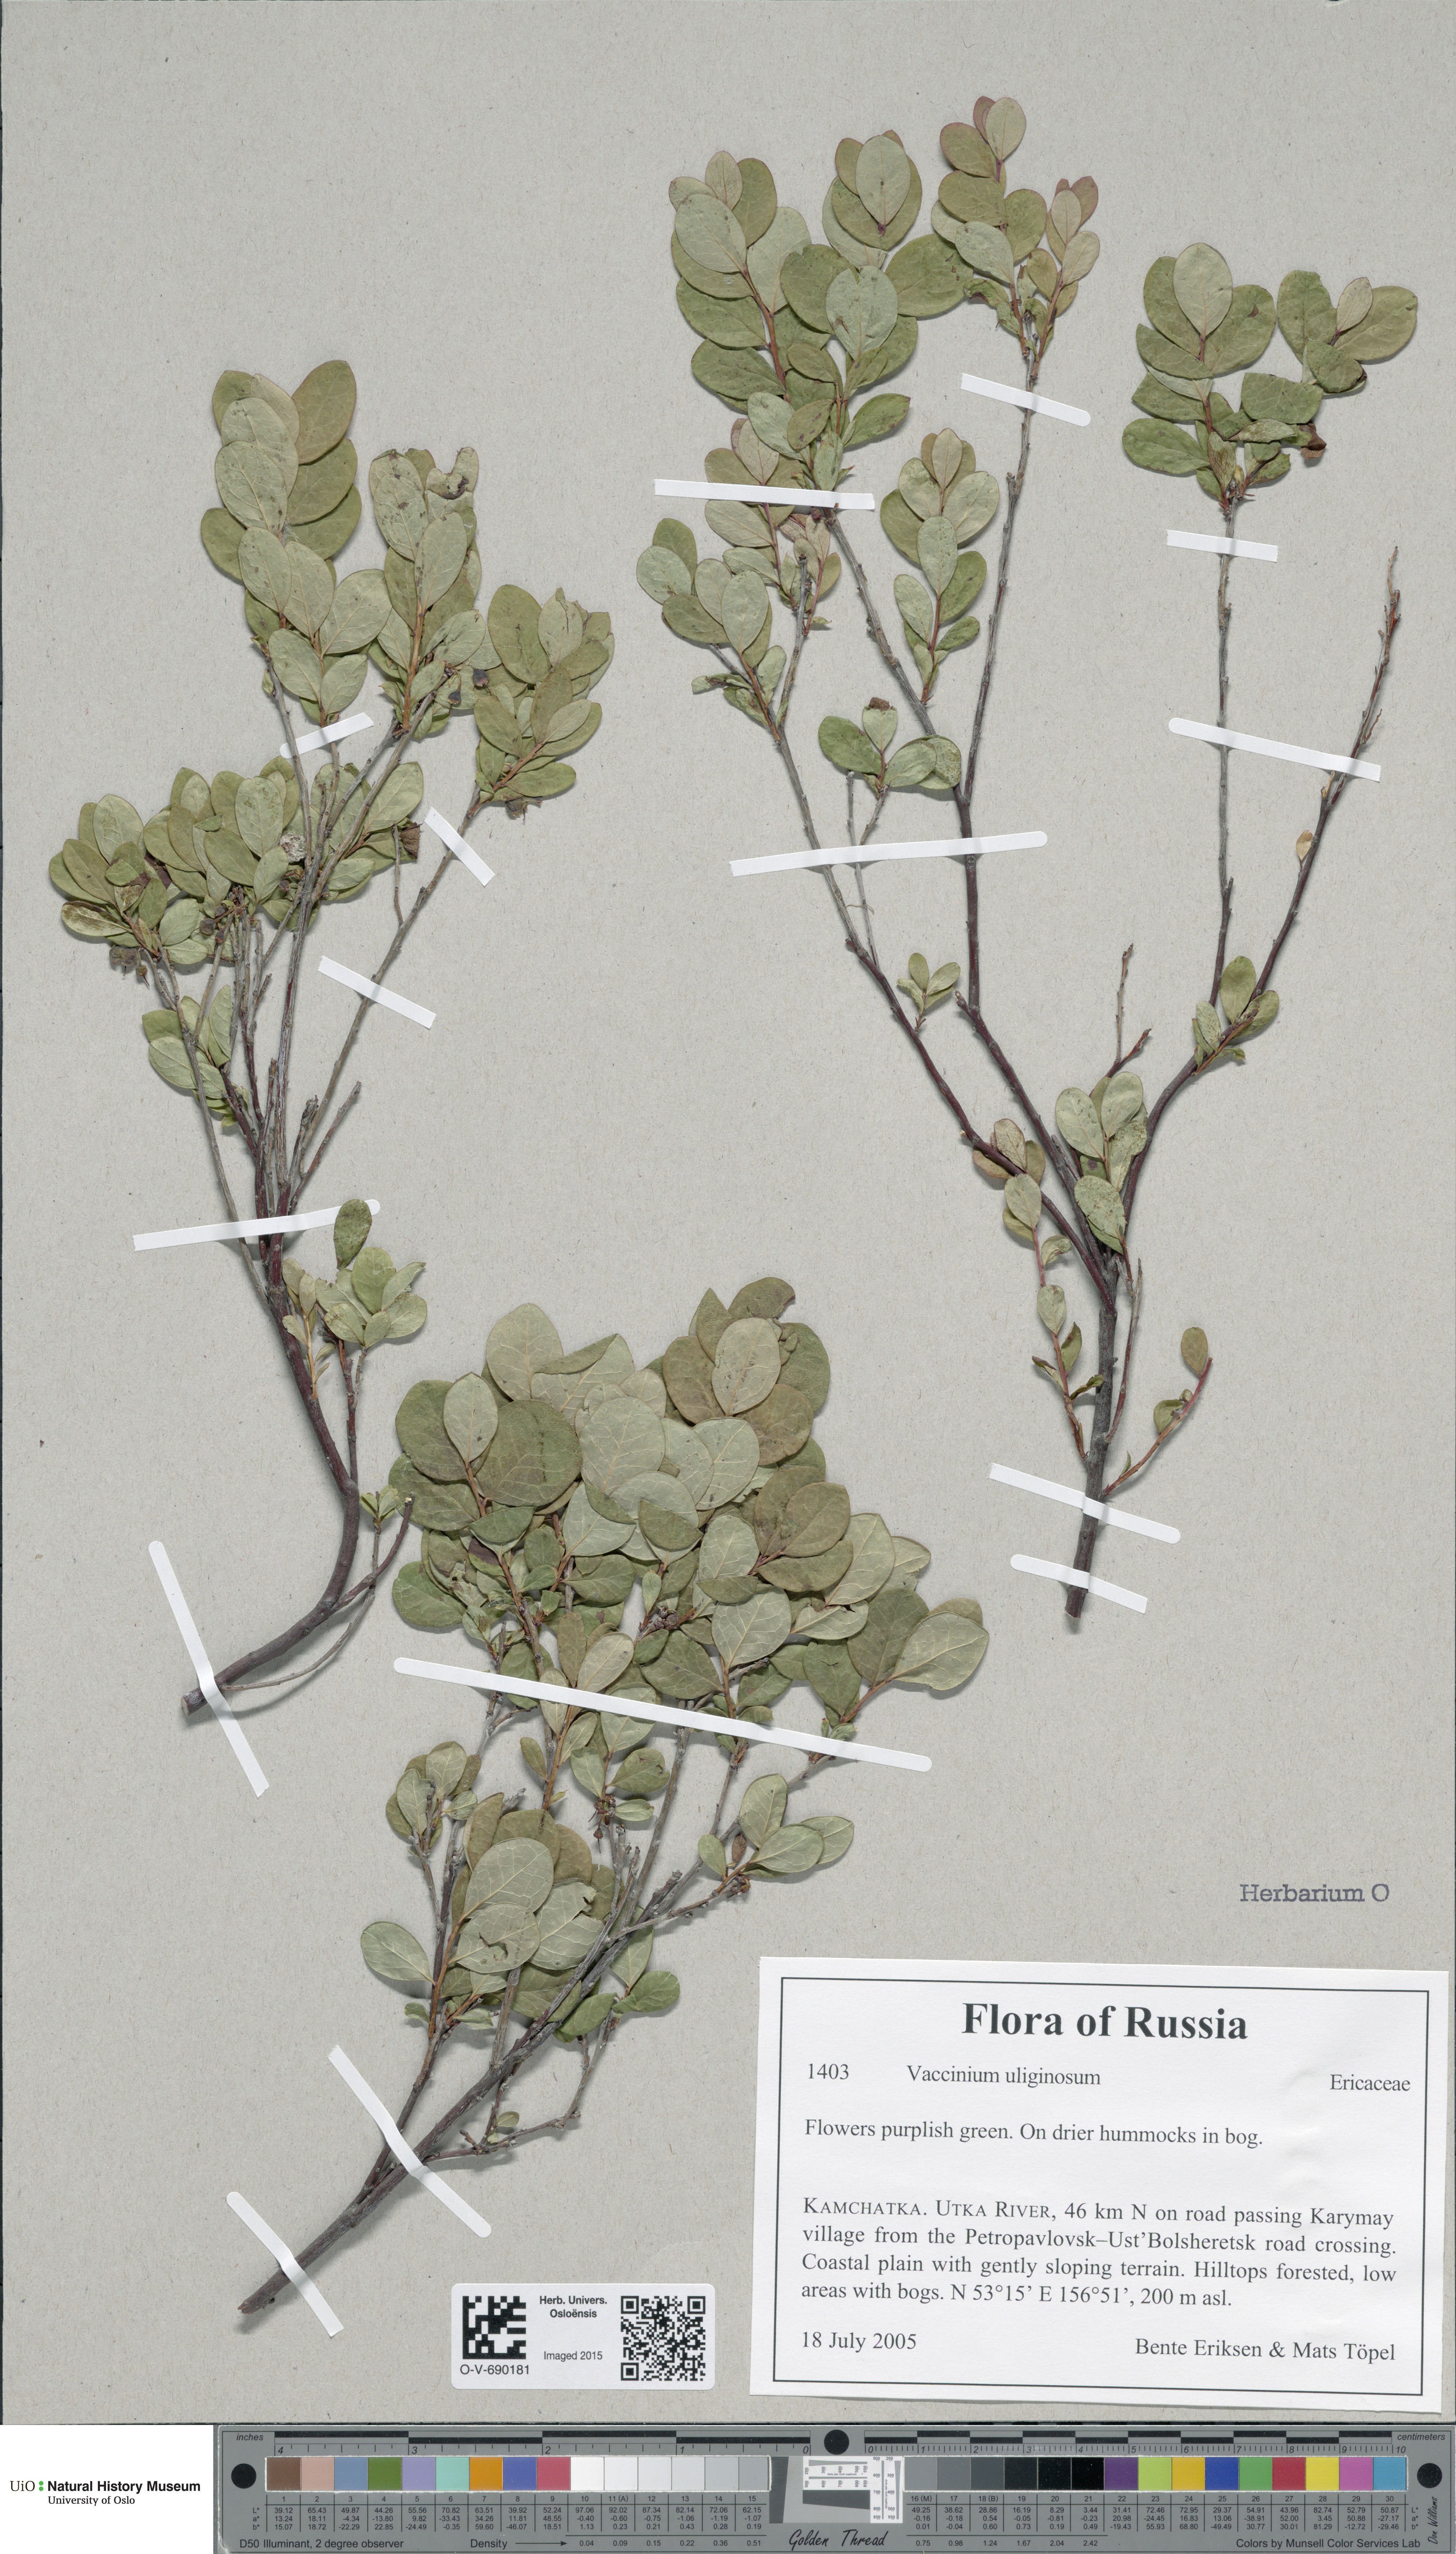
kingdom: Plantae
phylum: Tracheophyta
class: Magnoliopsida
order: Ericales
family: Ericaceae
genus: Vaccinium
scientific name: Vaccinium uliginosum
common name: Bog bilberry
